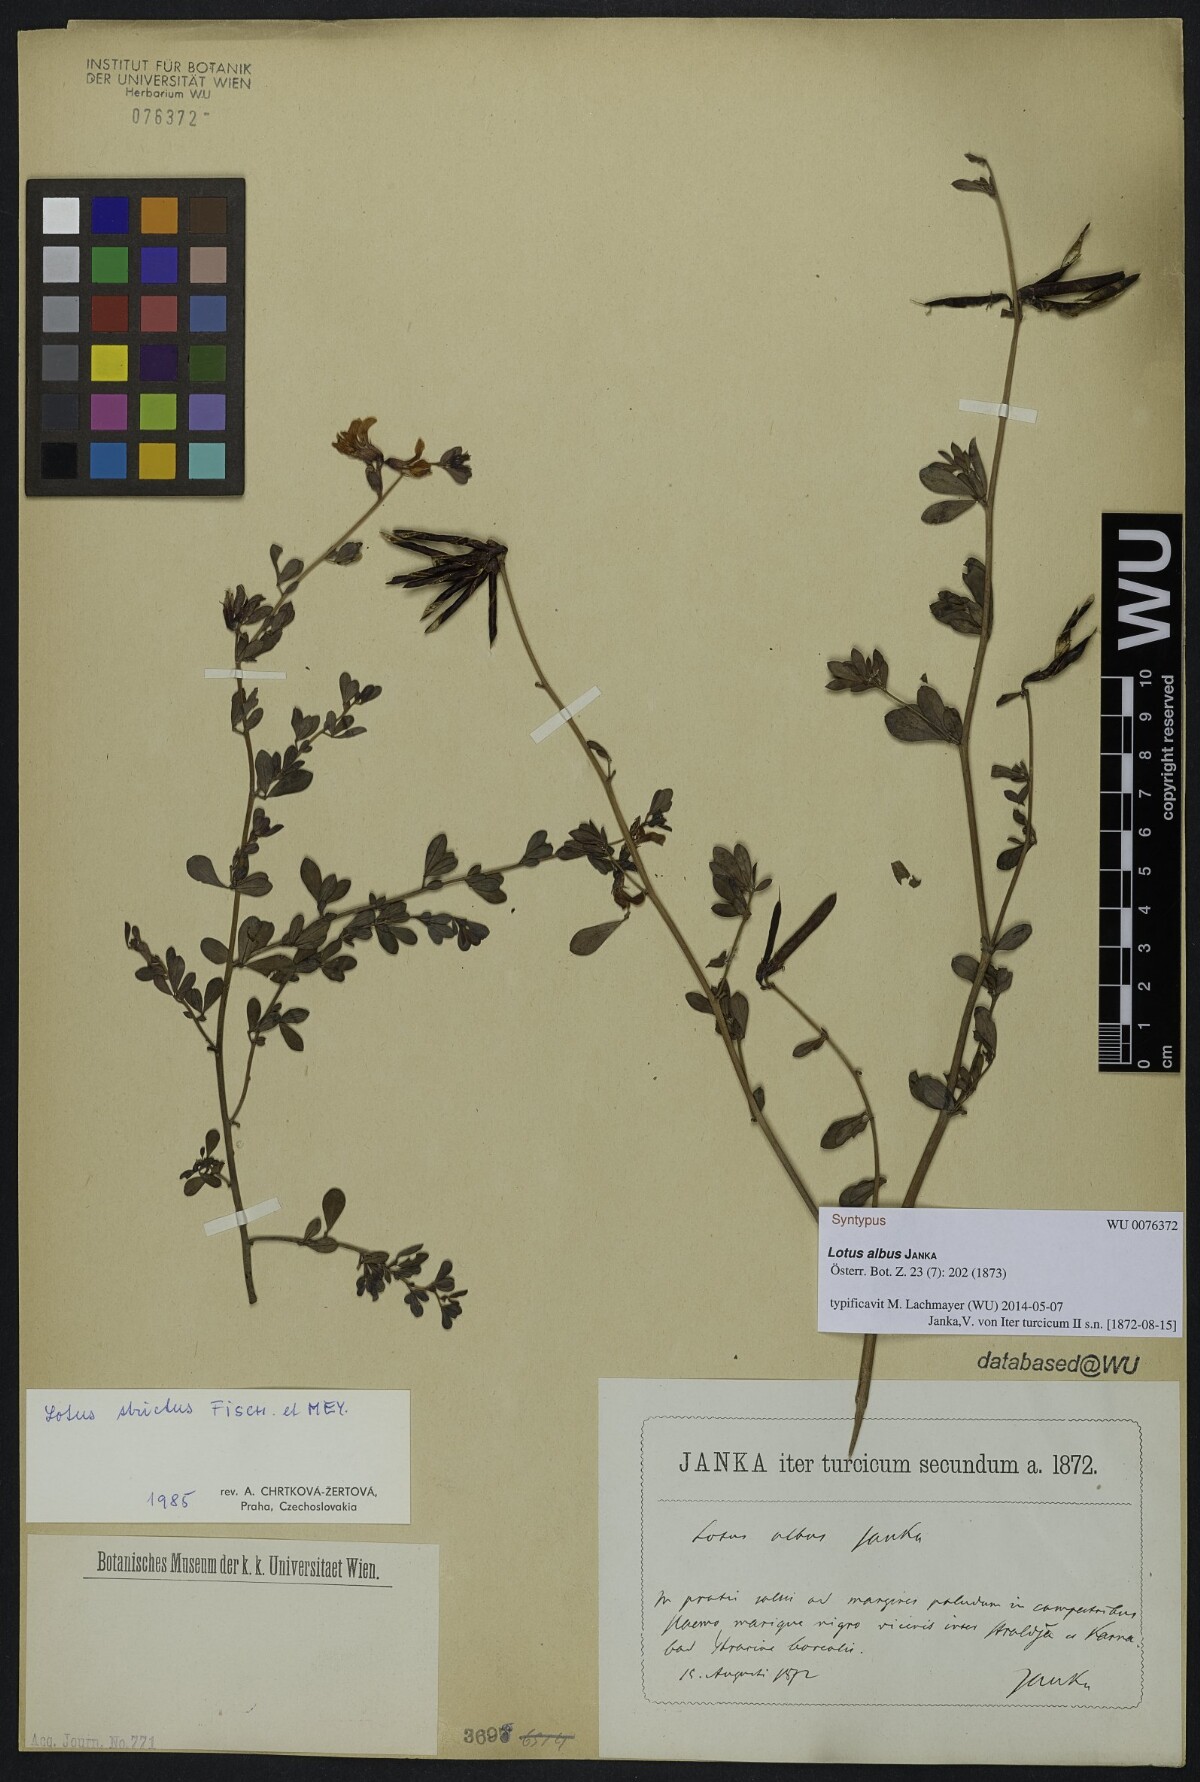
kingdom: Plantae
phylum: Tracheophyta
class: Magnoliopsida
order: Fabales
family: Fabaceae
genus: Lotus
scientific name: Lotus strictus
